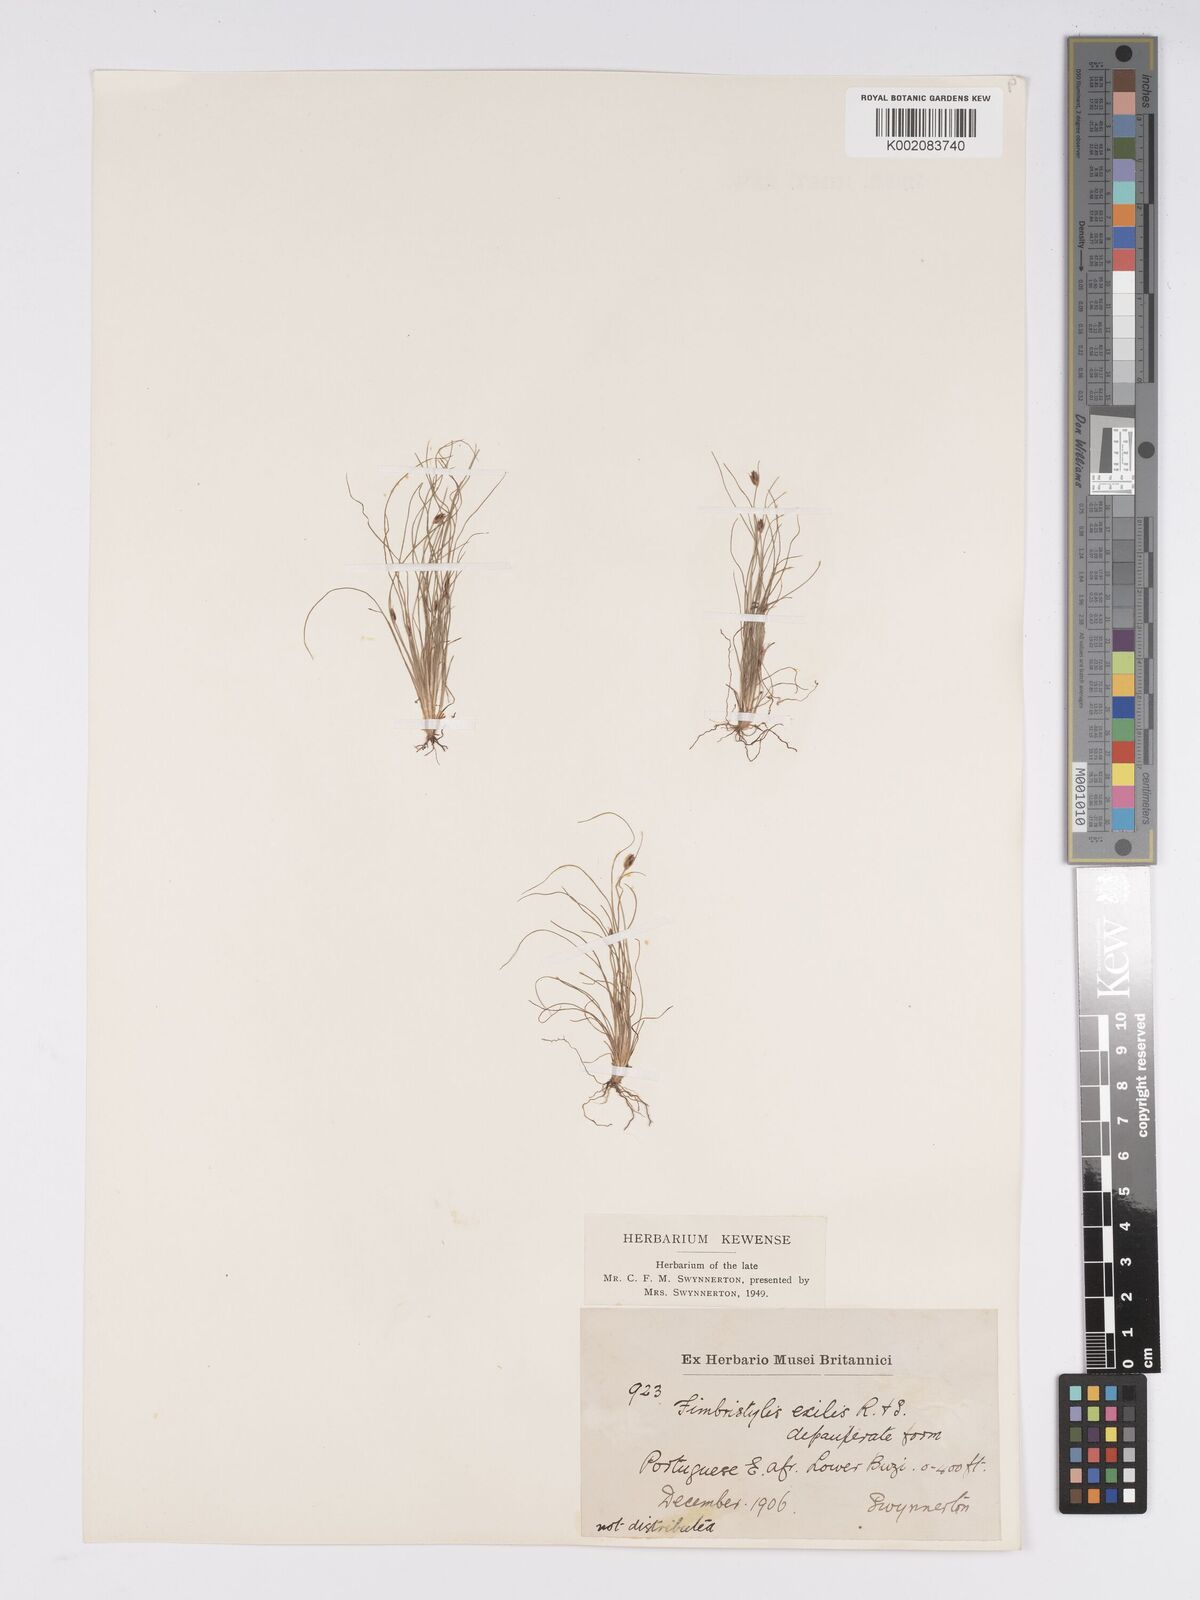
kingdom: Plantae
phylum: Tracheophyta
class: Liliopsida
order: Poales
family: Cyperaceae
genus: Bulbostylis
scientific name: Bulbostylis hispidula
